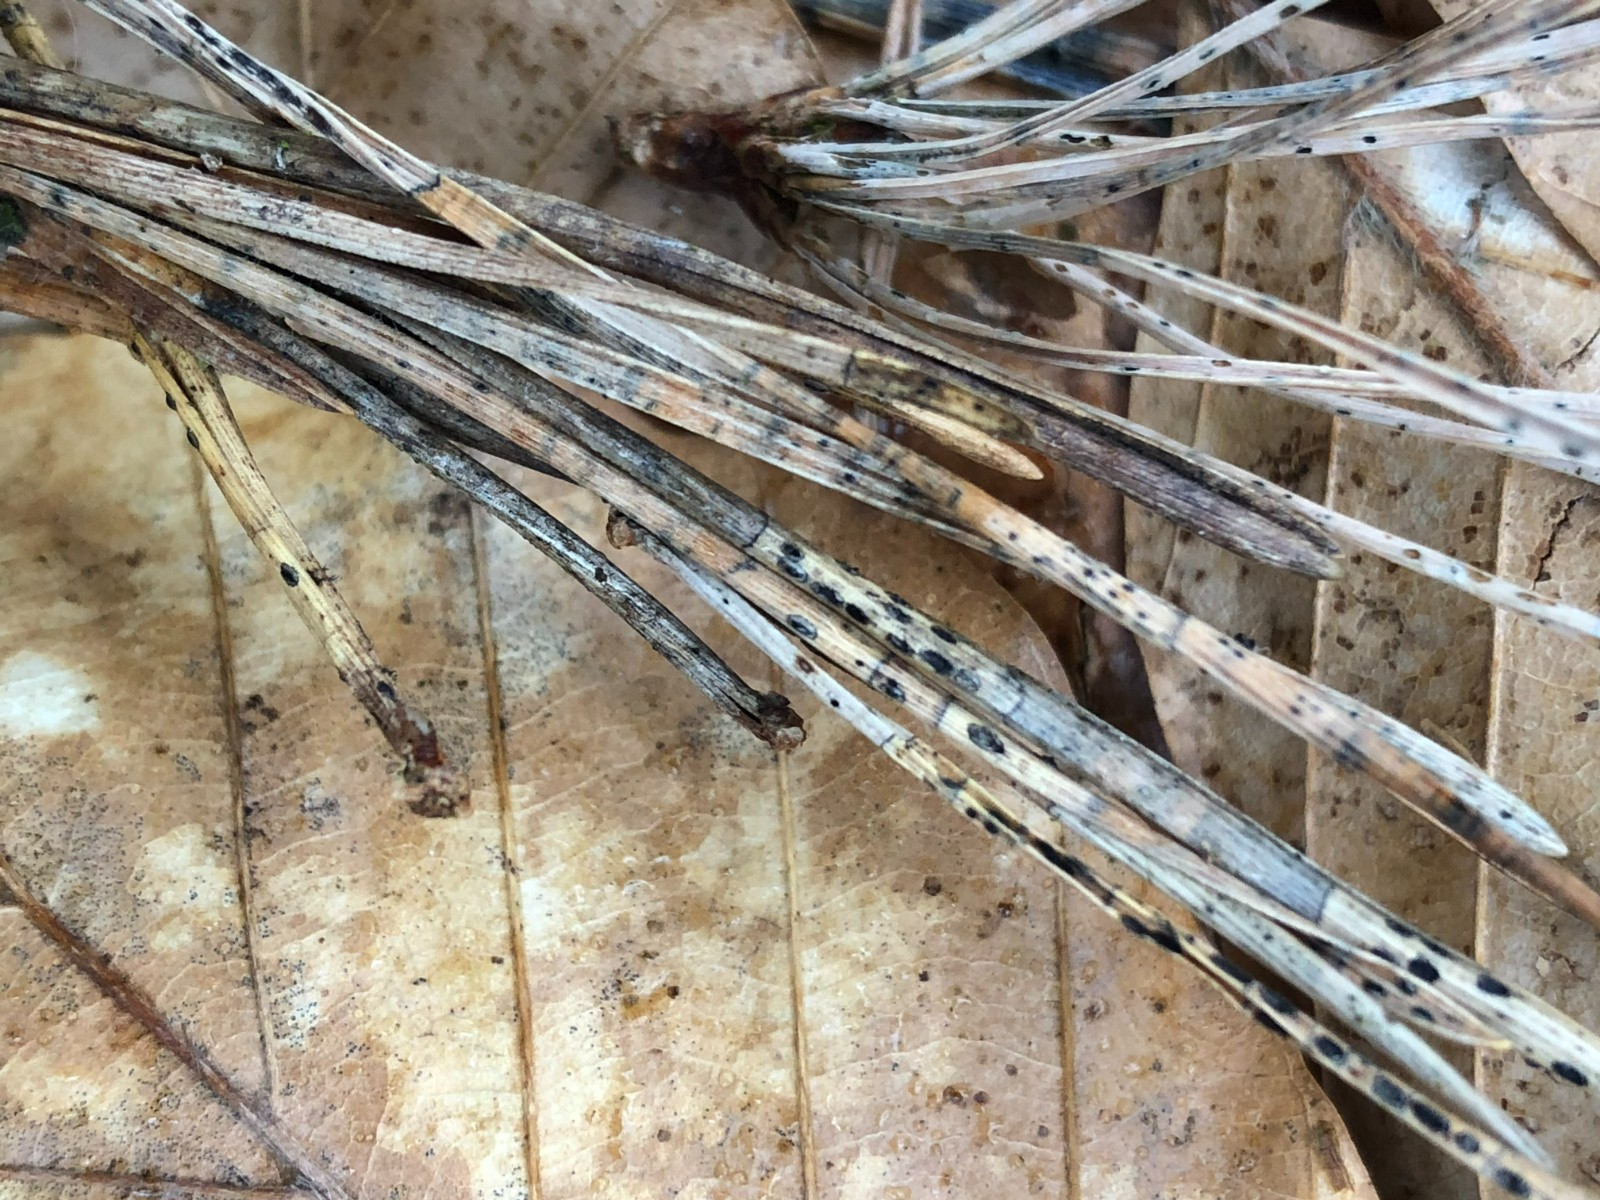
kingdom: Fungi
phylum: Ascomycota
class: Leotiomycetes
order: Rhytismatales
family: Rhytismataceae
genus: Lophodermium
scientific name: Lophodermium pinastri
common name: fyrre-fureplet
